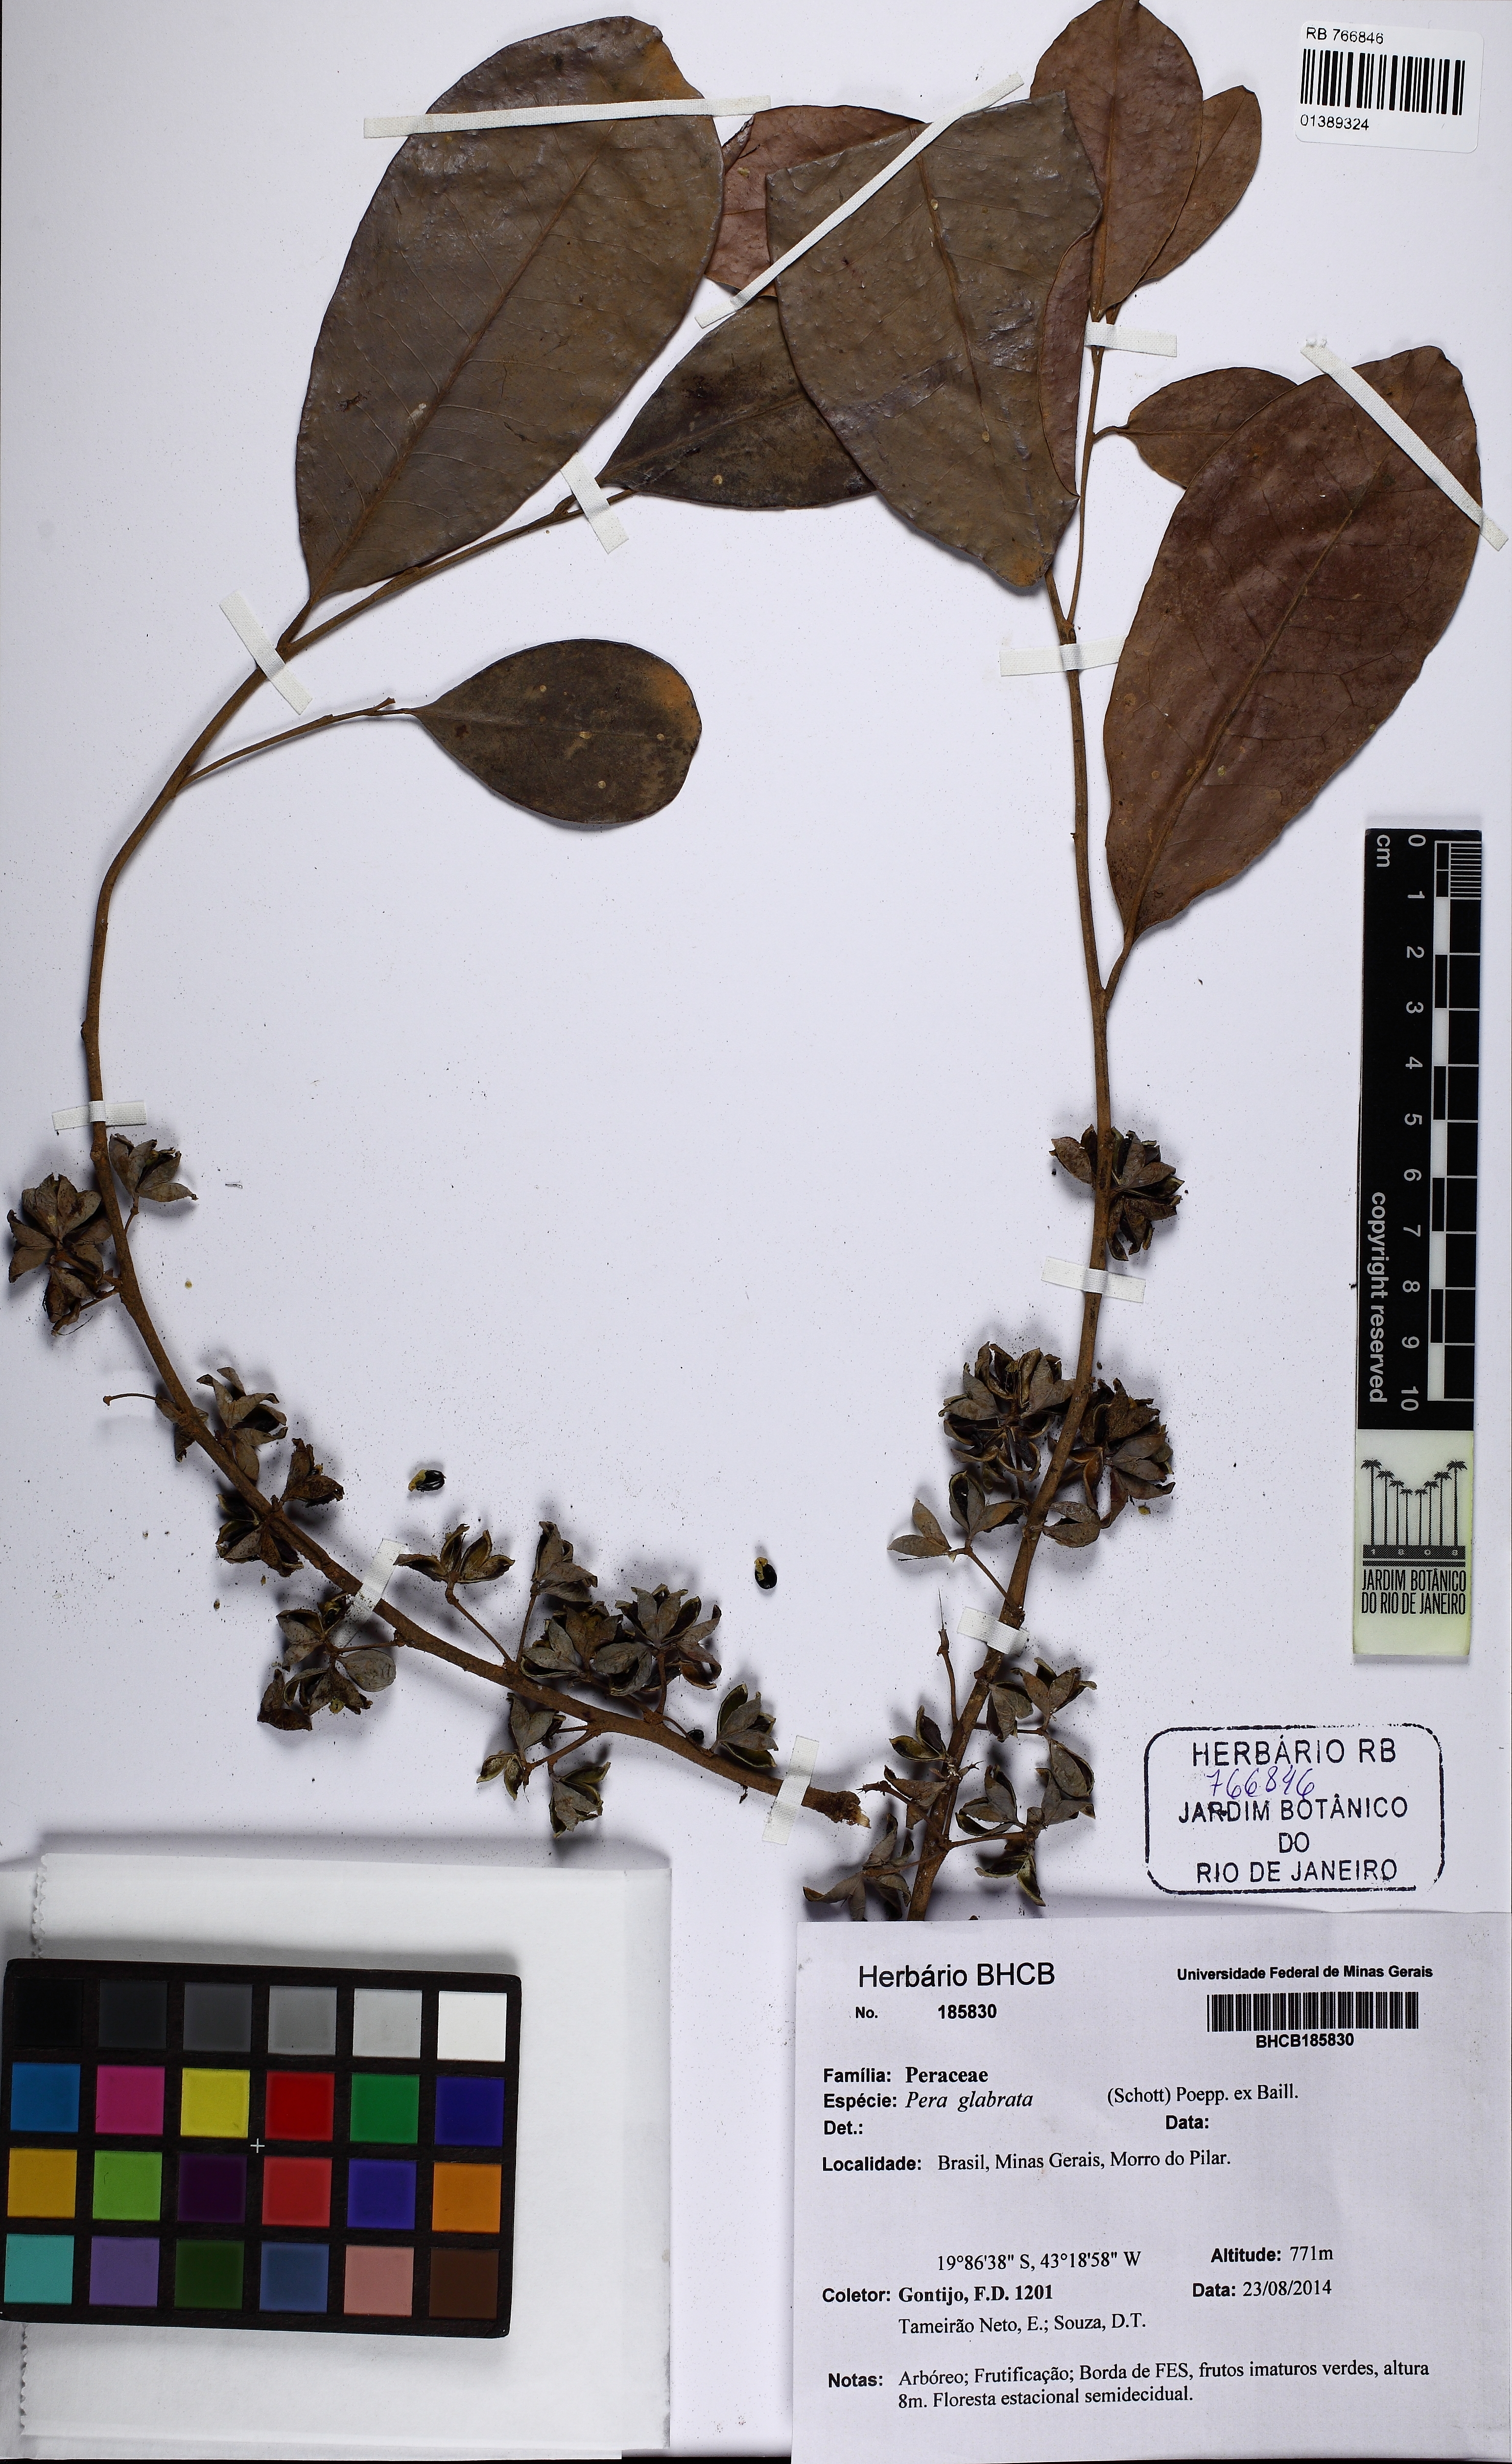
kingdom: Plantae
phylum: Tracheophyta
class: Magnoliopsida
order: Malpighiales
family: Peraceae
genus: Pera
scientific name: Pera glabrata
